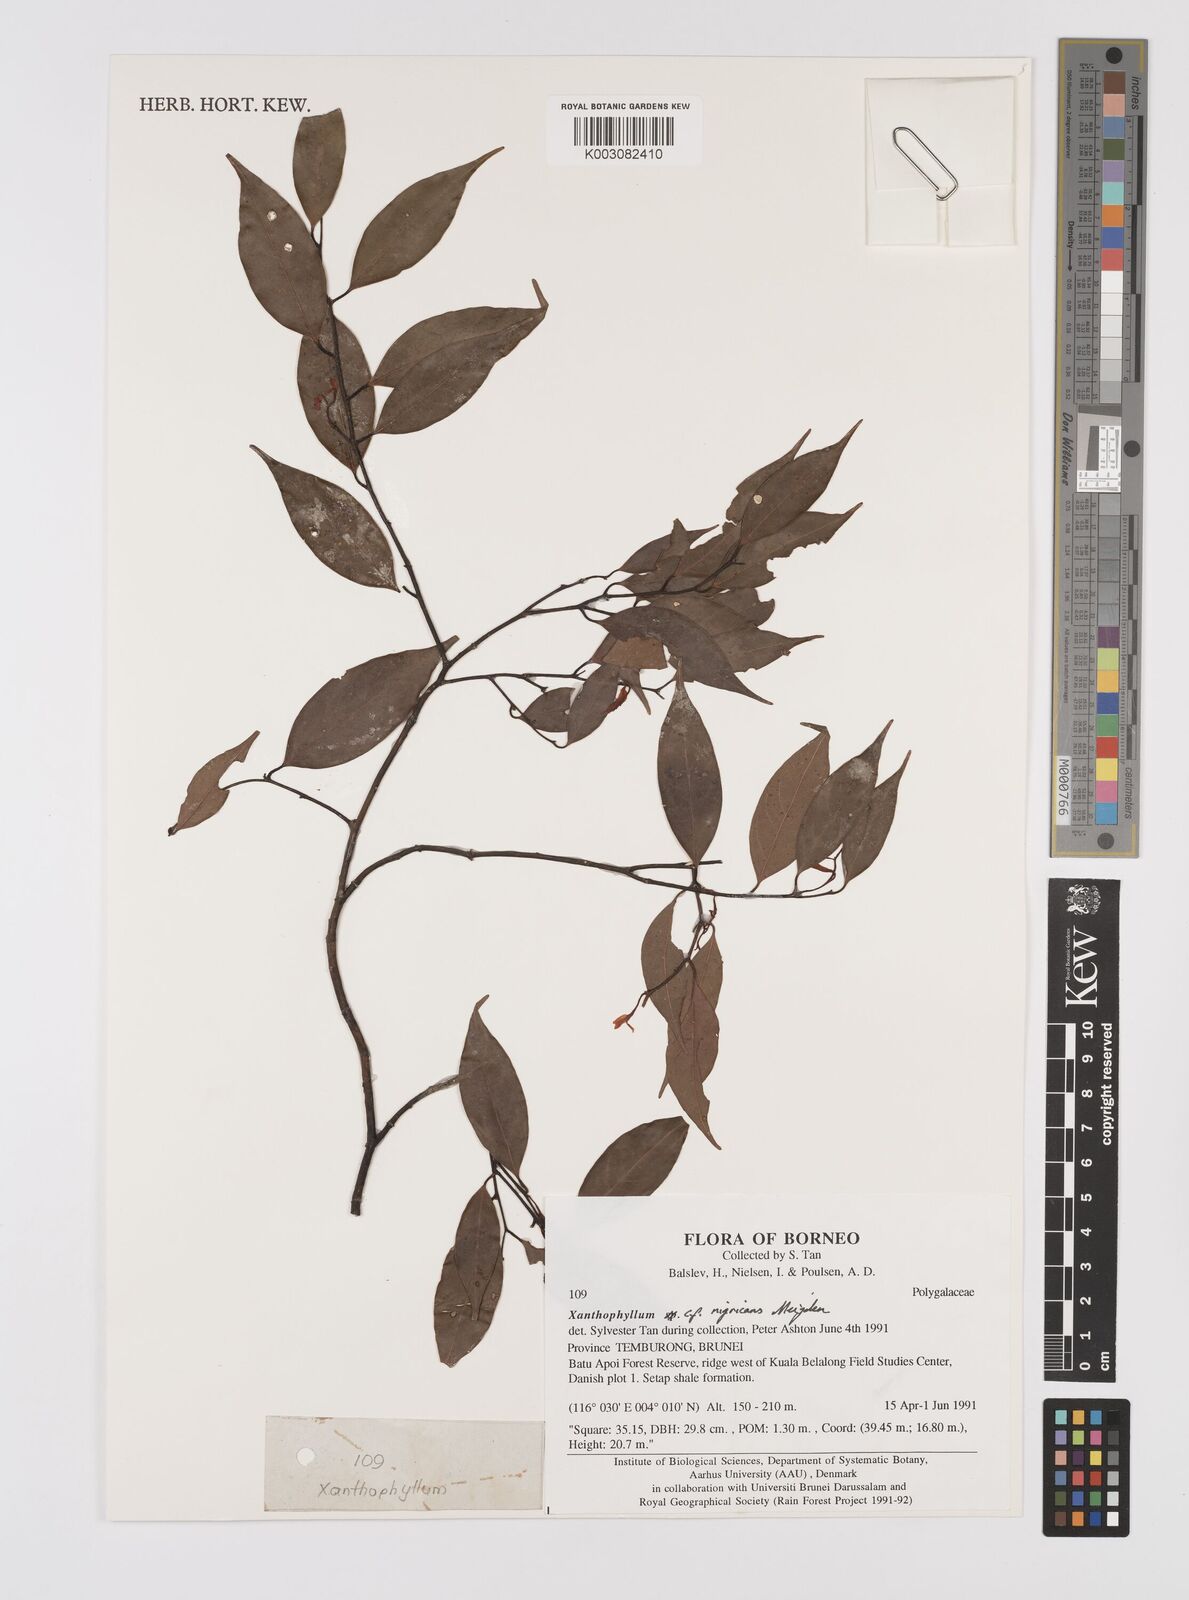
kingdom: Plantae
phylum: Tracheophyta
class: Magnoliopsida
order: Fabales
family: Polygalaceae
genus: Xanthophyllum
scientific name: Xanthophyllum nigricans
